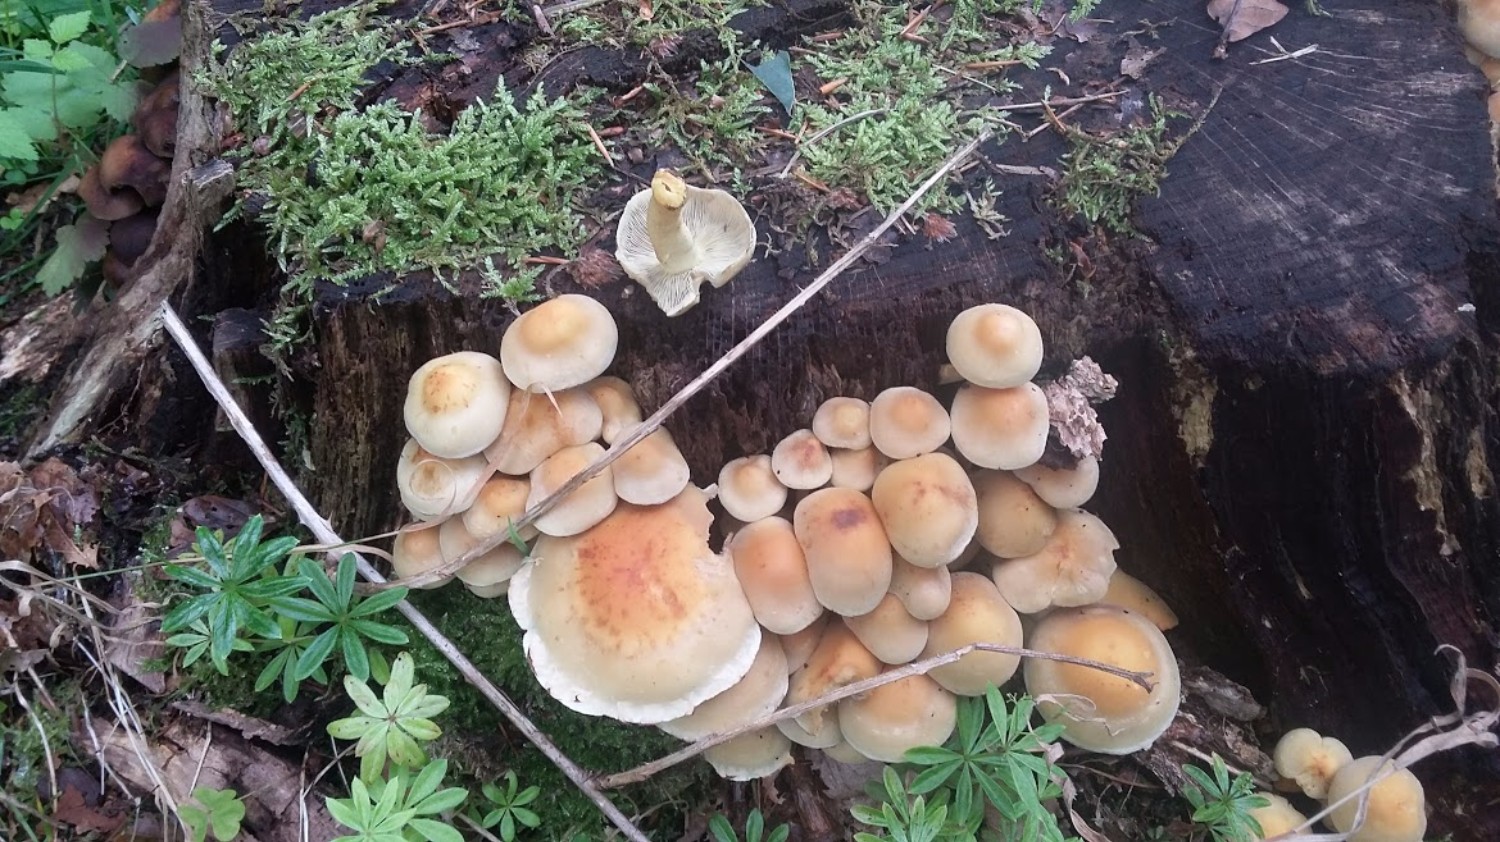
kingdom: Fungi
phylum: Basidiomycota
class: Agaricomycetes
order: Agaricales
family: Strophariaceae
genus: Hypholoma
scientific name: Hypholoma fasciculare
